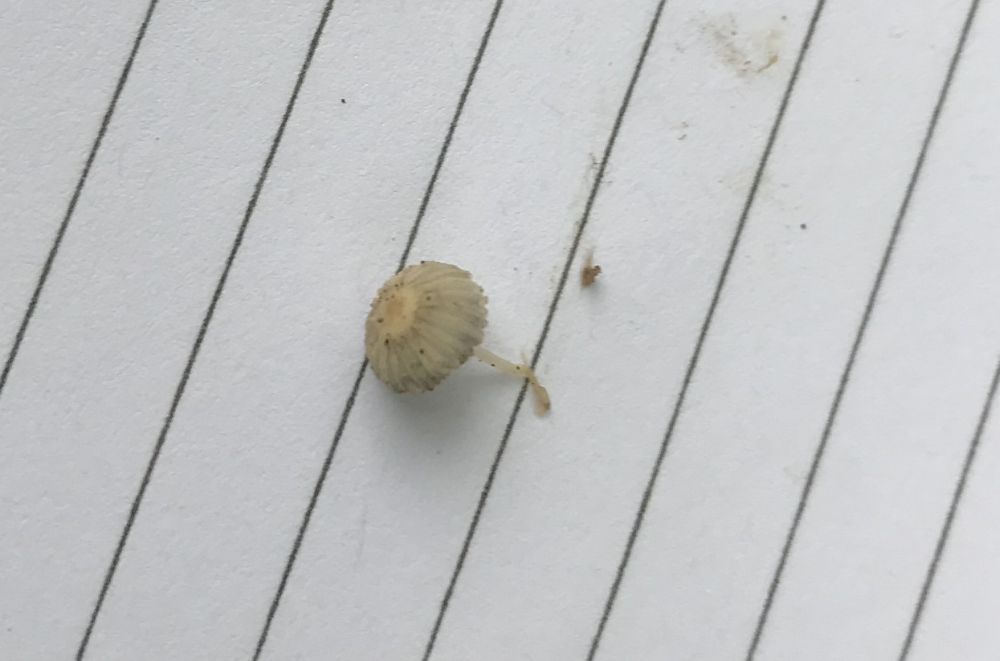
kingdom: Fungi
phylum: Basidiomycota
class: Agaricomycetes
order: Agaricales
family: Psathyrellaceae
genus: Coprinopsis
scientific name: Coprinopsis
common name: blækhat
